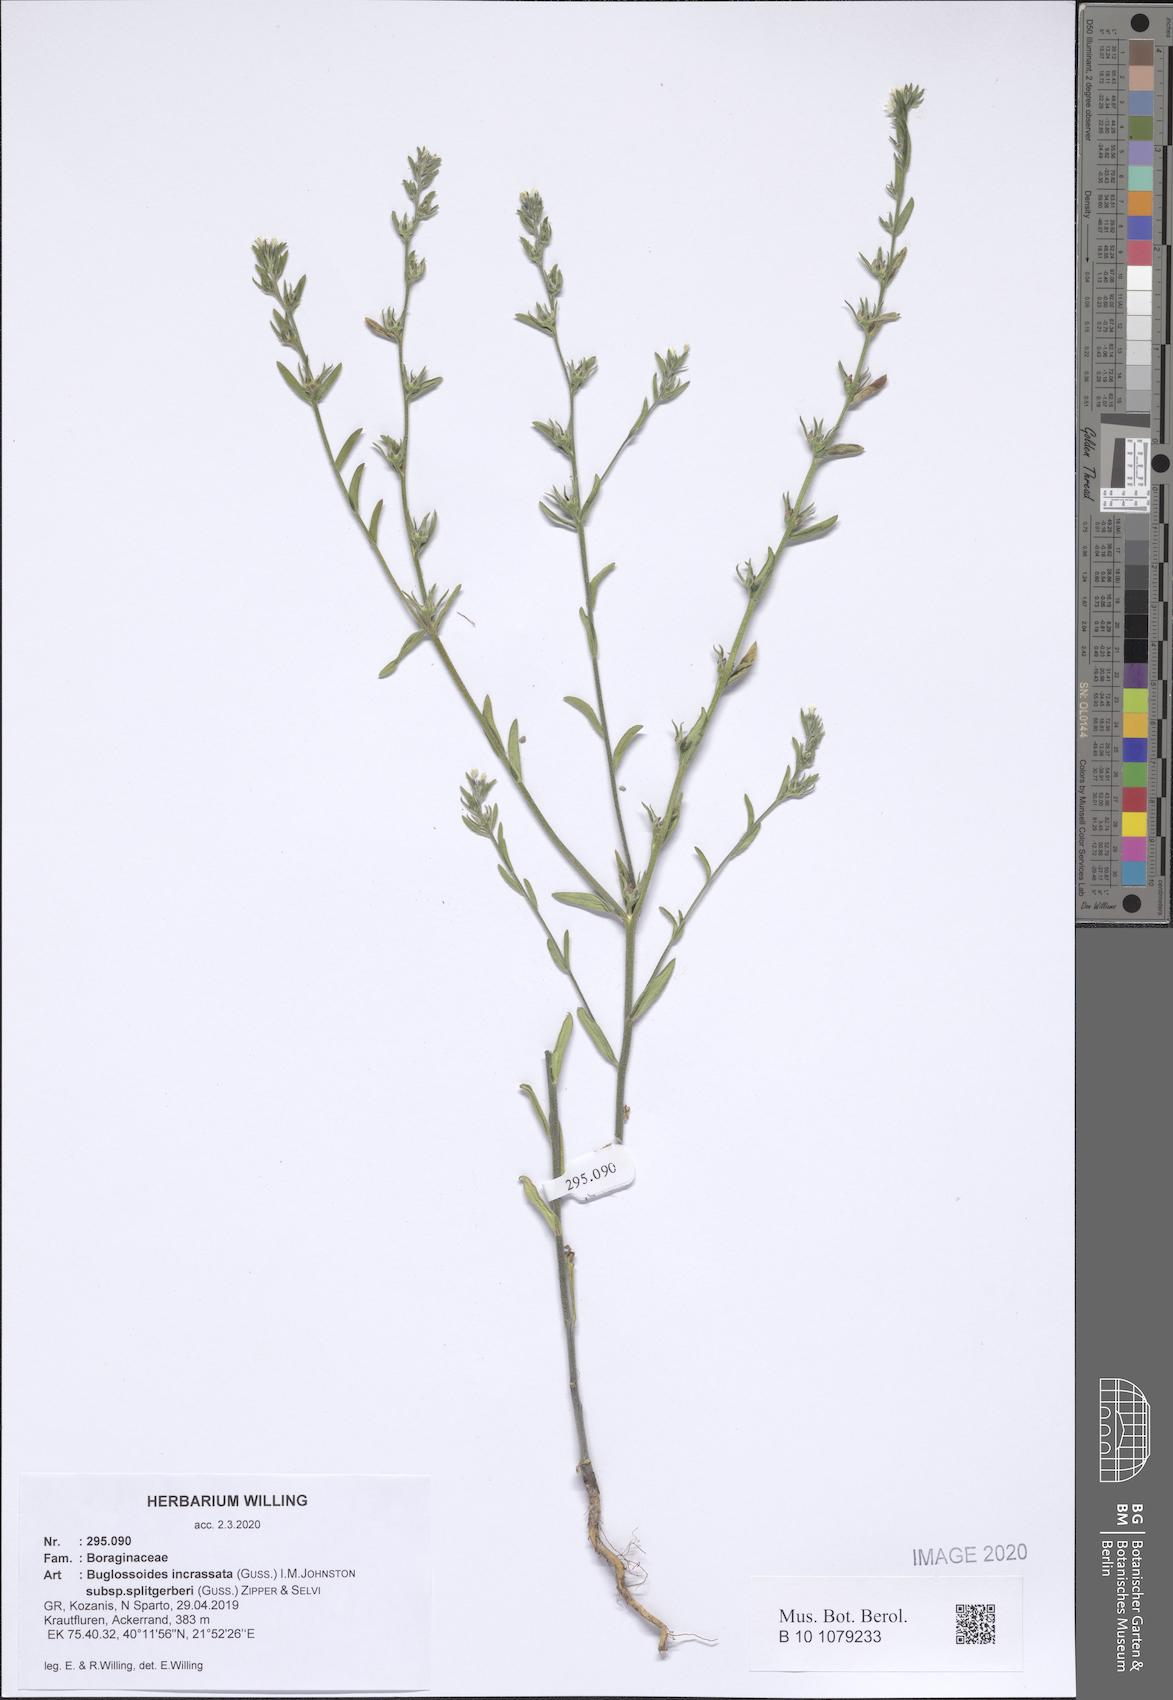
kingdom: Plantae
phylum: Tracheophyta
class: Magnoliopsida
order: Boraginales
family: Boraginaceae
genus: Buglossoides
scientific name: Buglossoides incrassata
